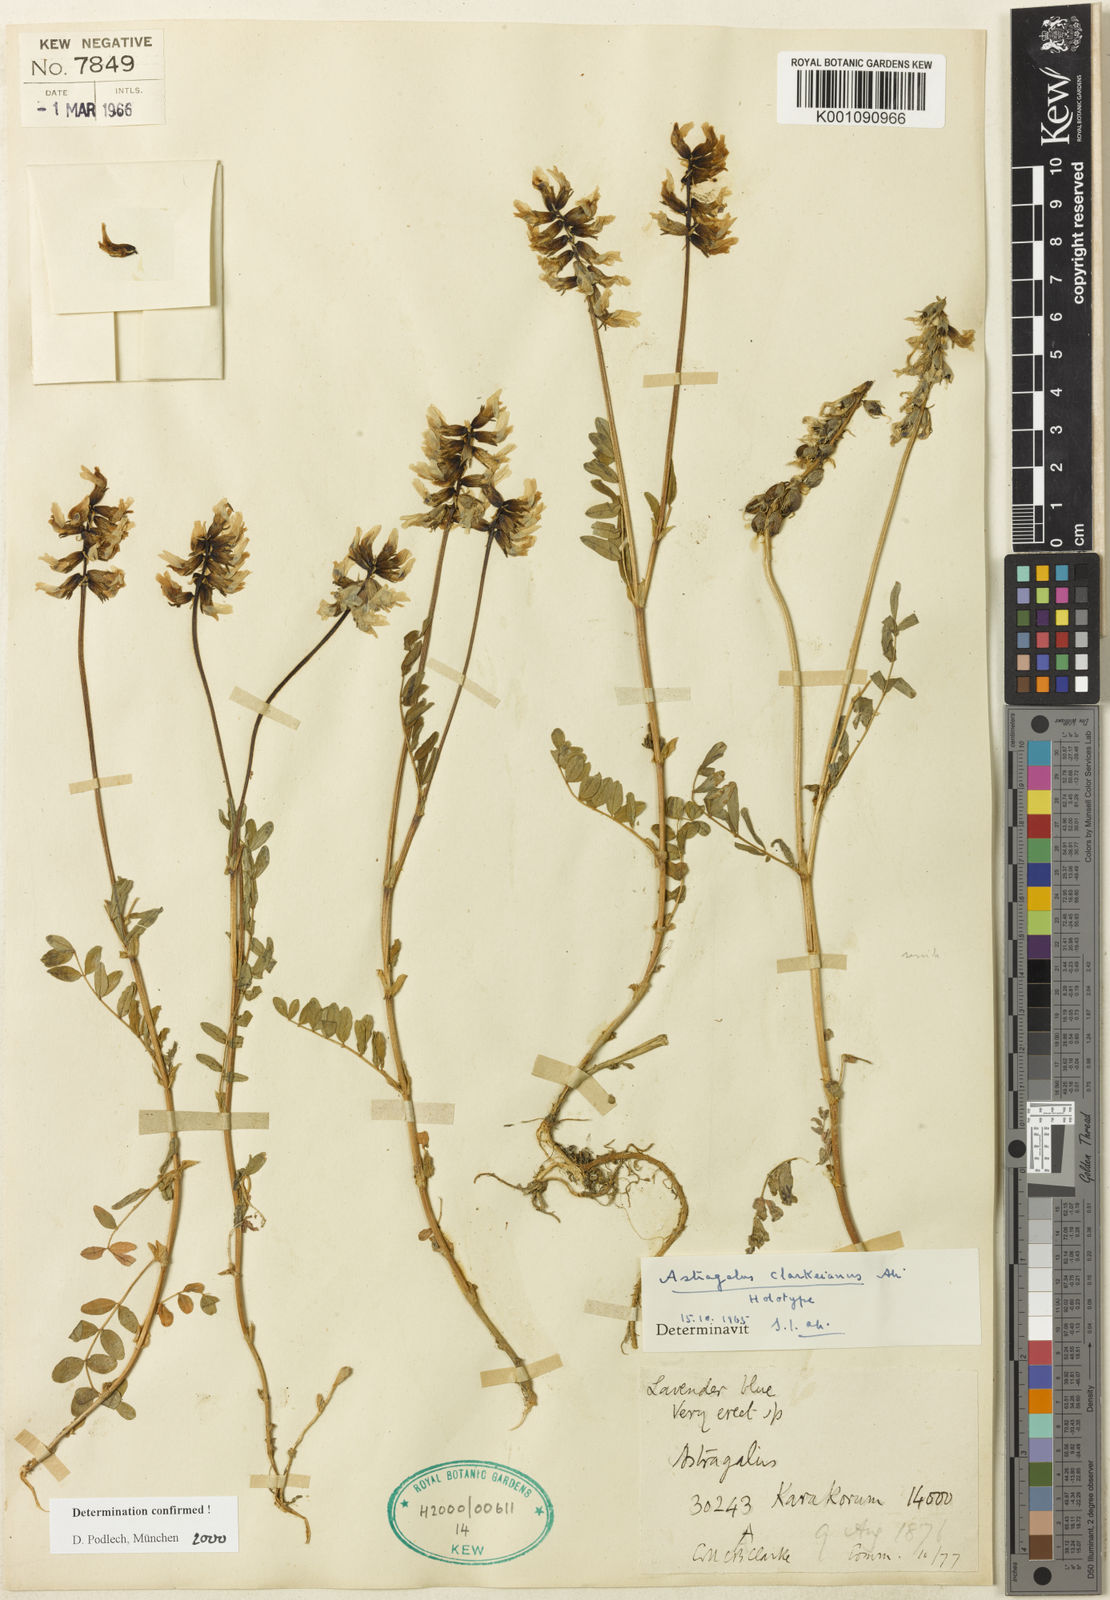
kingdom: Plantae
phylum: Tracheophyta
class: Magnoliopsida
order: Fabales
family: Fabaceae
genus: Astragalus
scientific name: Astragalus
